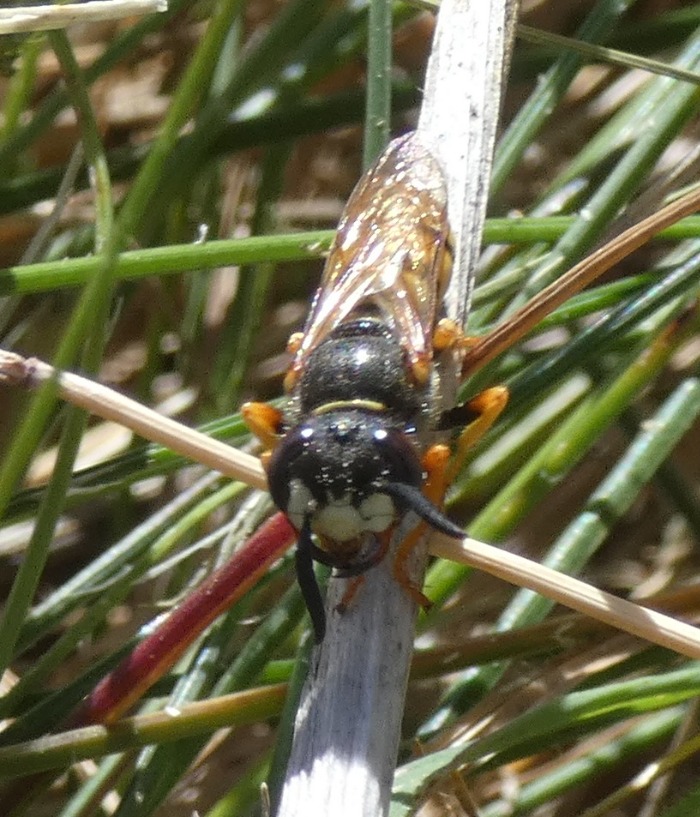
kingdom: Animalia
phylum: Arthropoda
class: Insecta
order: Hymenoptera
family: Crabronidae
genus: Philanthus
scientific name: Philanthus triangulum
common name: Biulv
